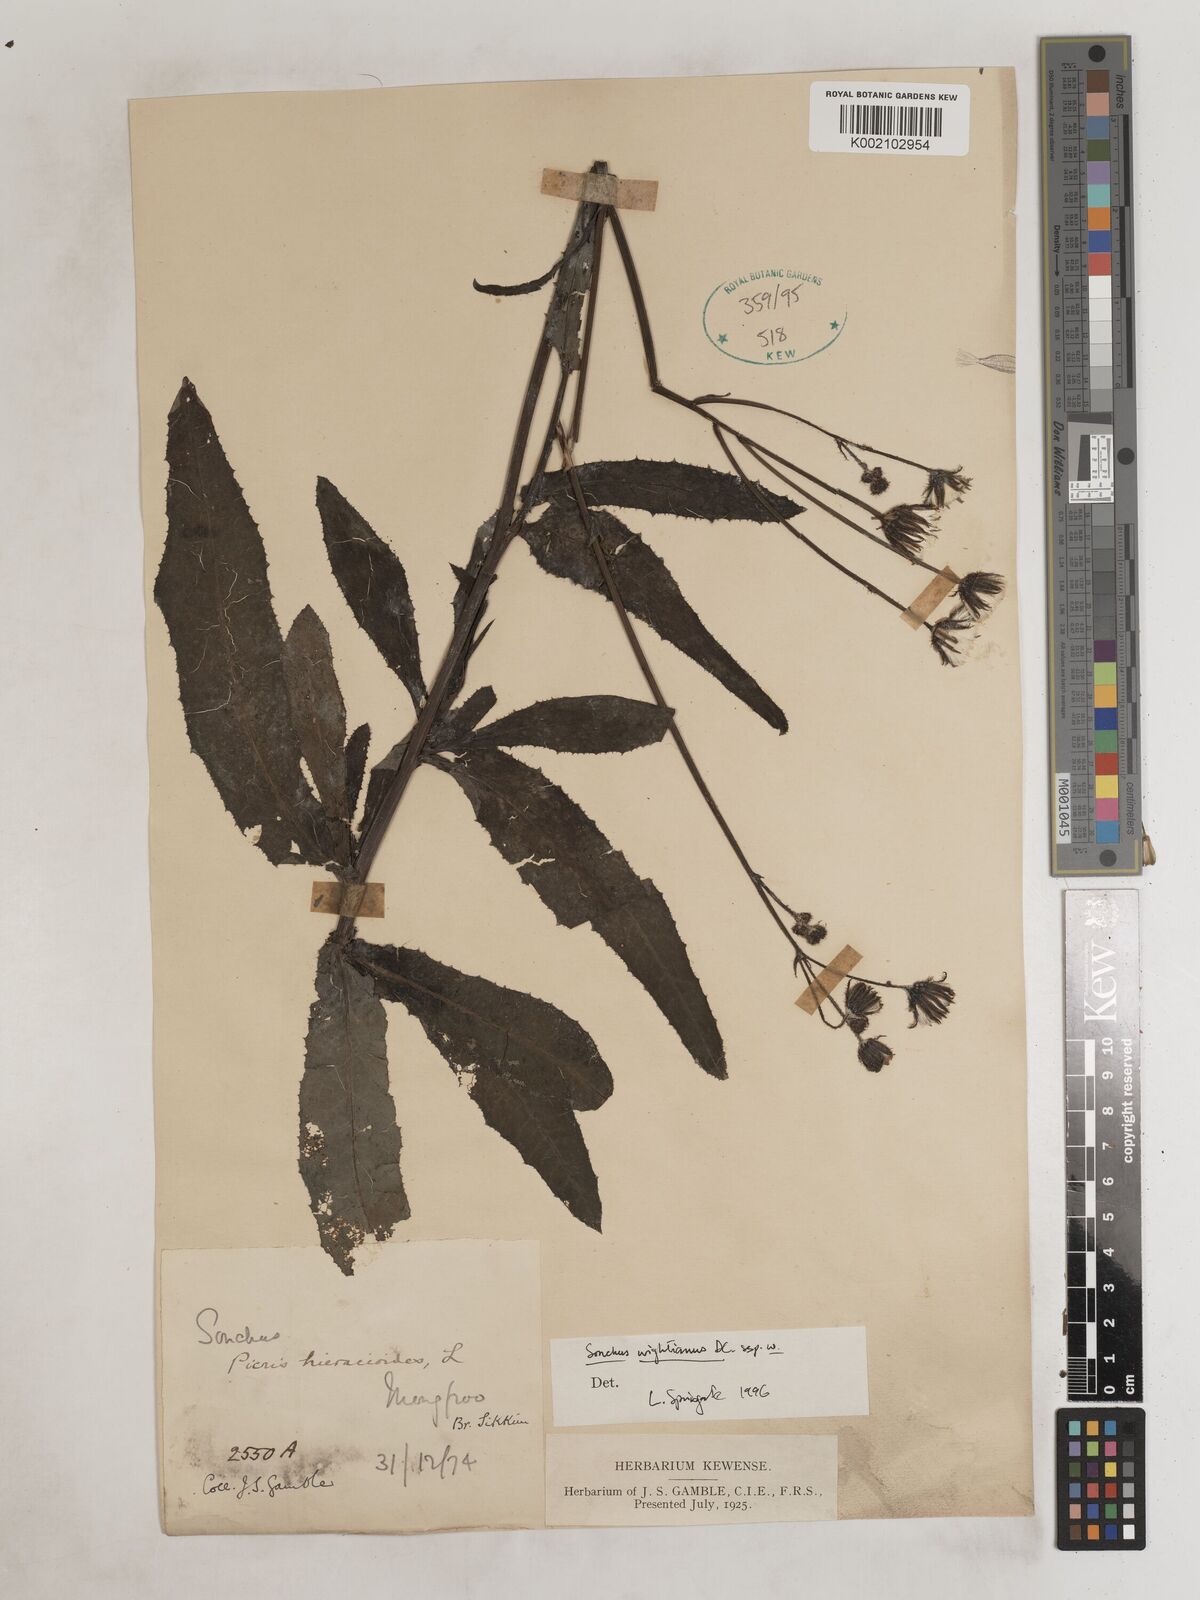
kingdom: Plantae
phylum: Tracheophyta
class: Magnoliopsida
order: Asterales
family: Asteraceae
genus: Sonchus
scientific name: Sonchus arvensis
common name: Perennial sow-thistle
